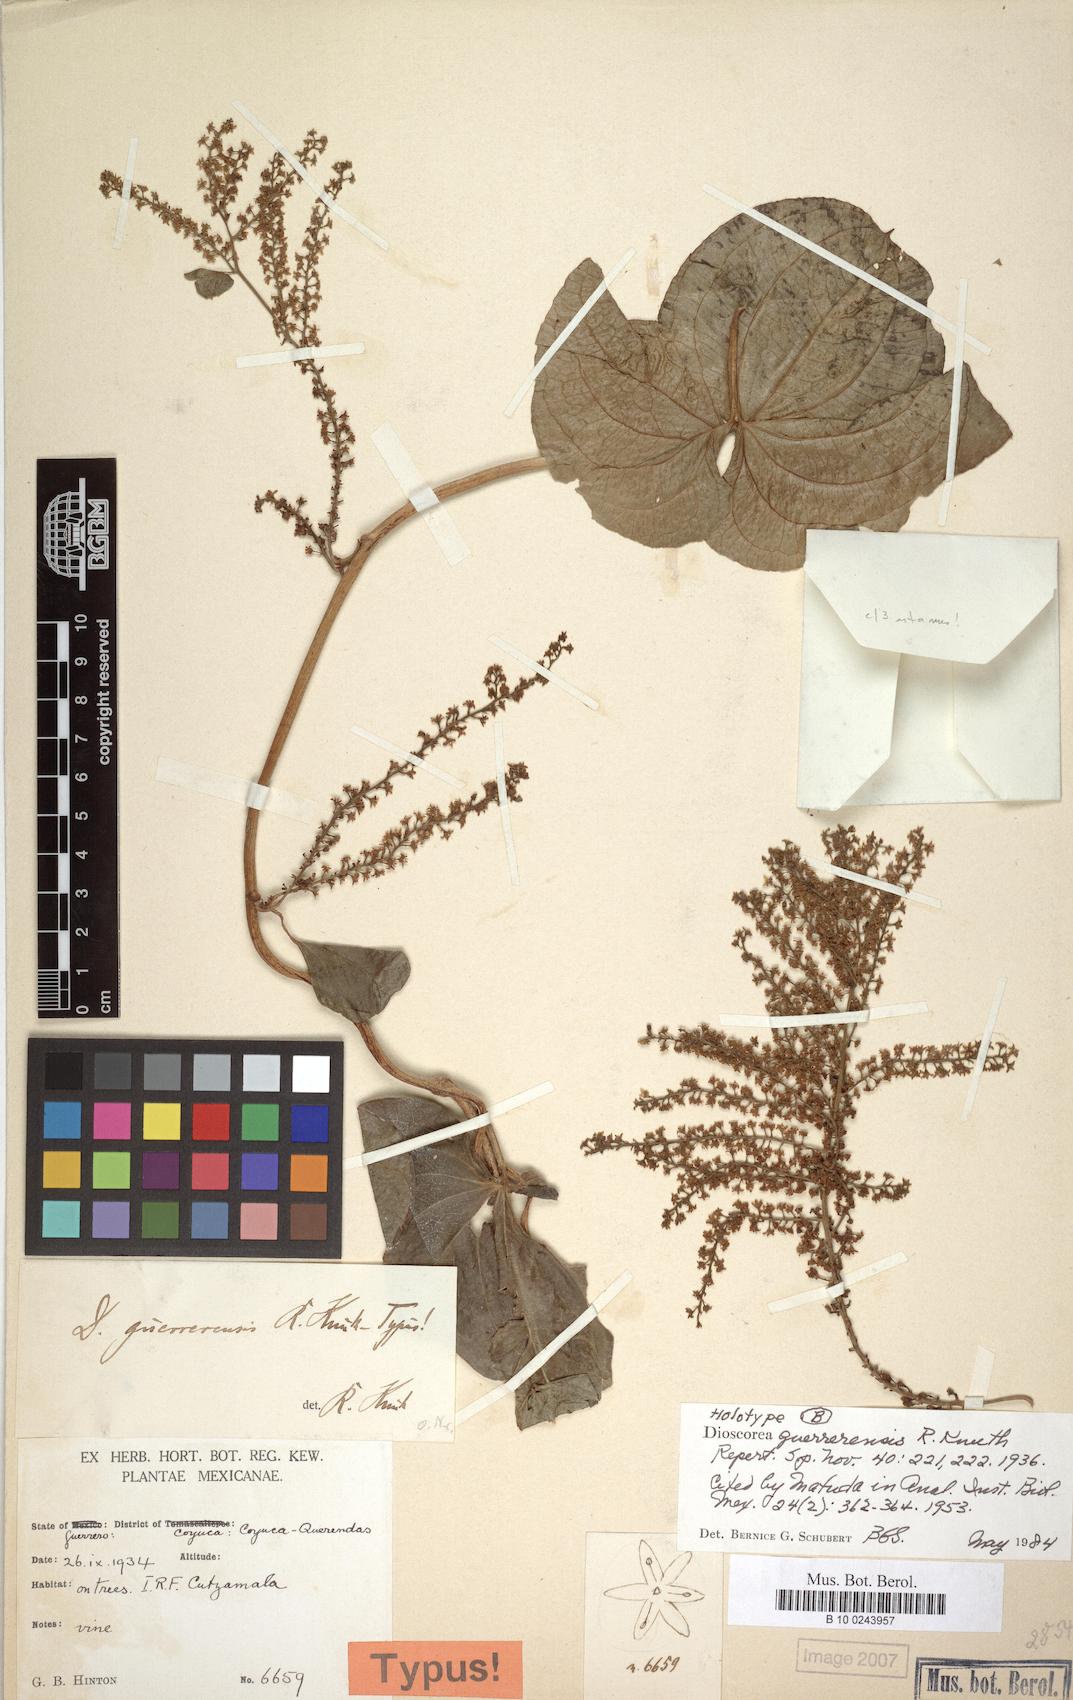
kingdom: Plantae
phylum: Tracheophyta
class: Liliopsida
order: Dioscoreales
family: Dioscoreaceae
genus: Dioscorea
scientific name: Dioscorea guerrerensis
